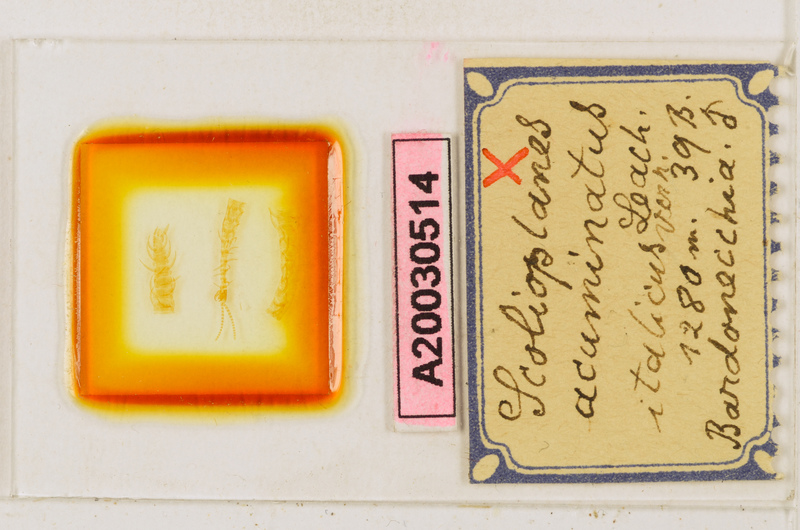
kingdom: Animalia
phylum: Arthropoda
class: Chilopoda
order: Geophilomorpha
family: Linotaeniidae
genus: Strigamia
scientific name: Strigamia acuminata
